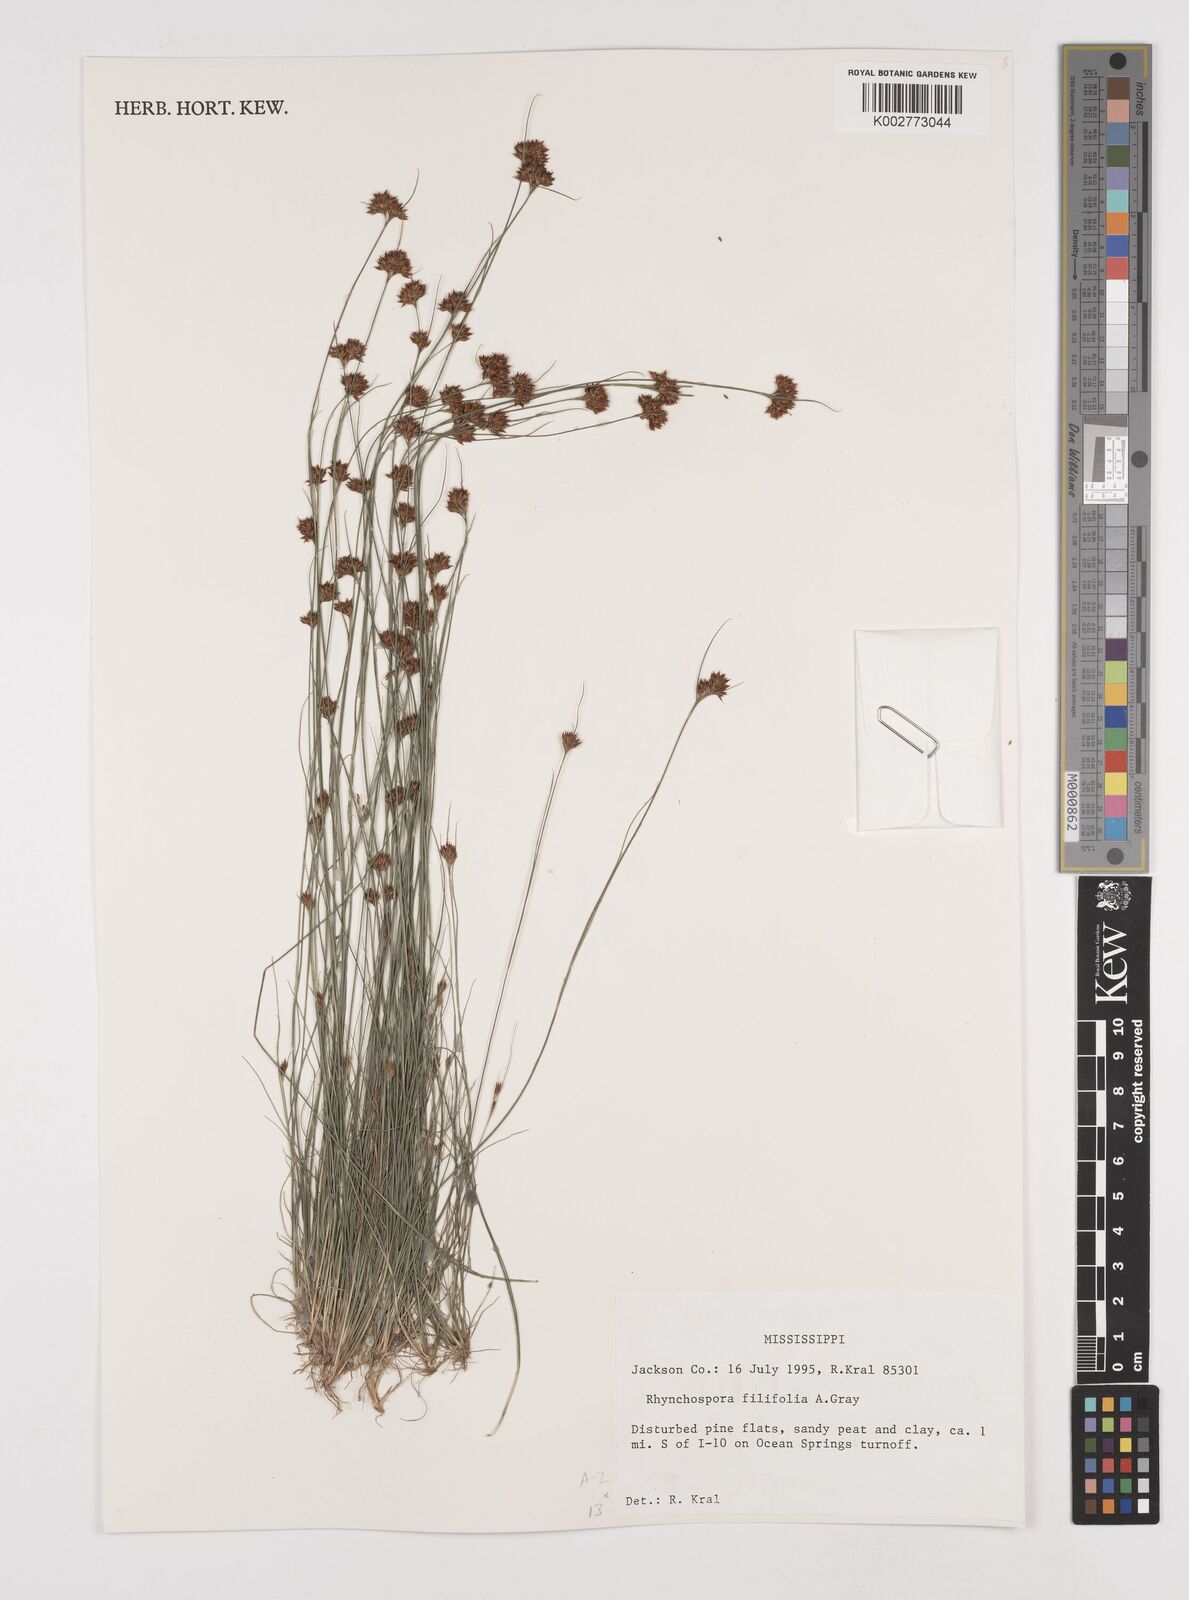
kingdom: Plantae
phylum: Tracheophyta
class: Liliopsida
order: Poales
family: Cyperaceae
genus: Rhynchospora
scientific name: Rhynchospora filifolia
